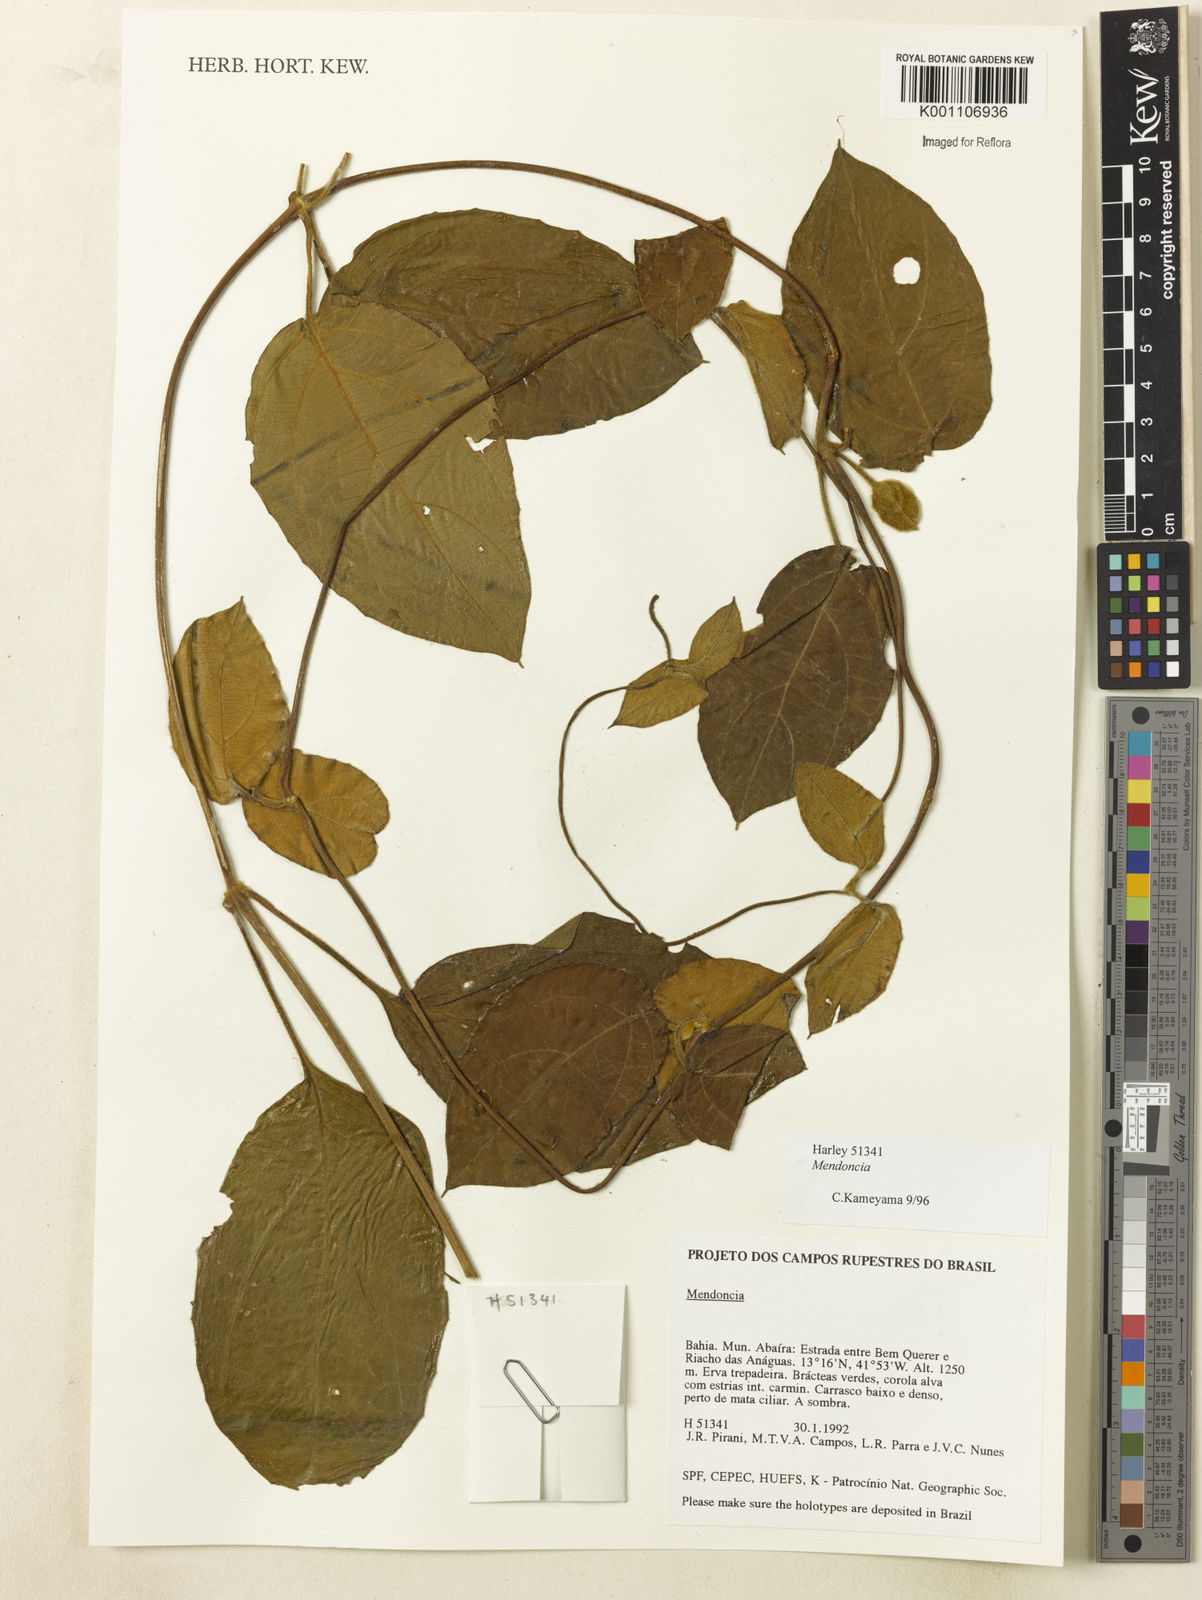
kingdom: Plantae
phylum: Tracheophyta
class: Magnoliopsida
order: Lamiales
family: Acanthaceae
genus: Mendoncia
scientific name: Mendoncia mollis
